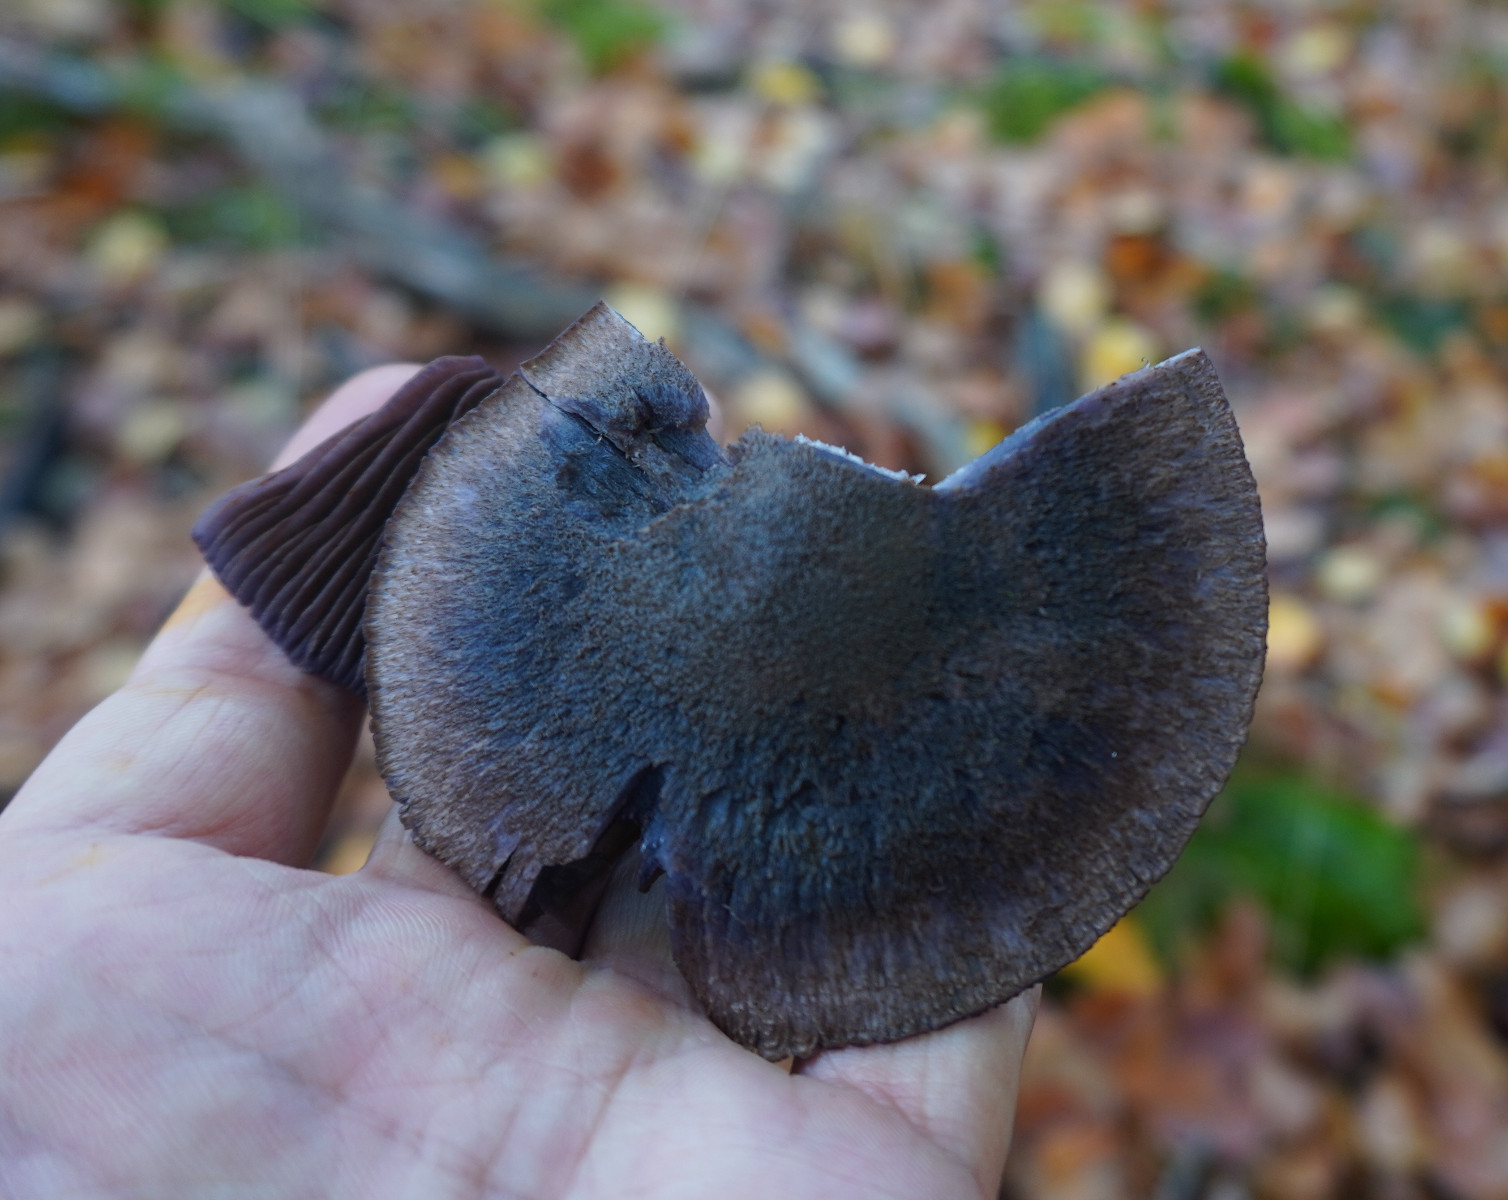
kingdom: Fungi
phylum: Basidiomycota
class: Agaricomycetes
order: Agaricales
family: Cortinariaceae
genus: Cortinarius
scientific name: Cortinarius violaceus
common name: mørkviolet slørhat
